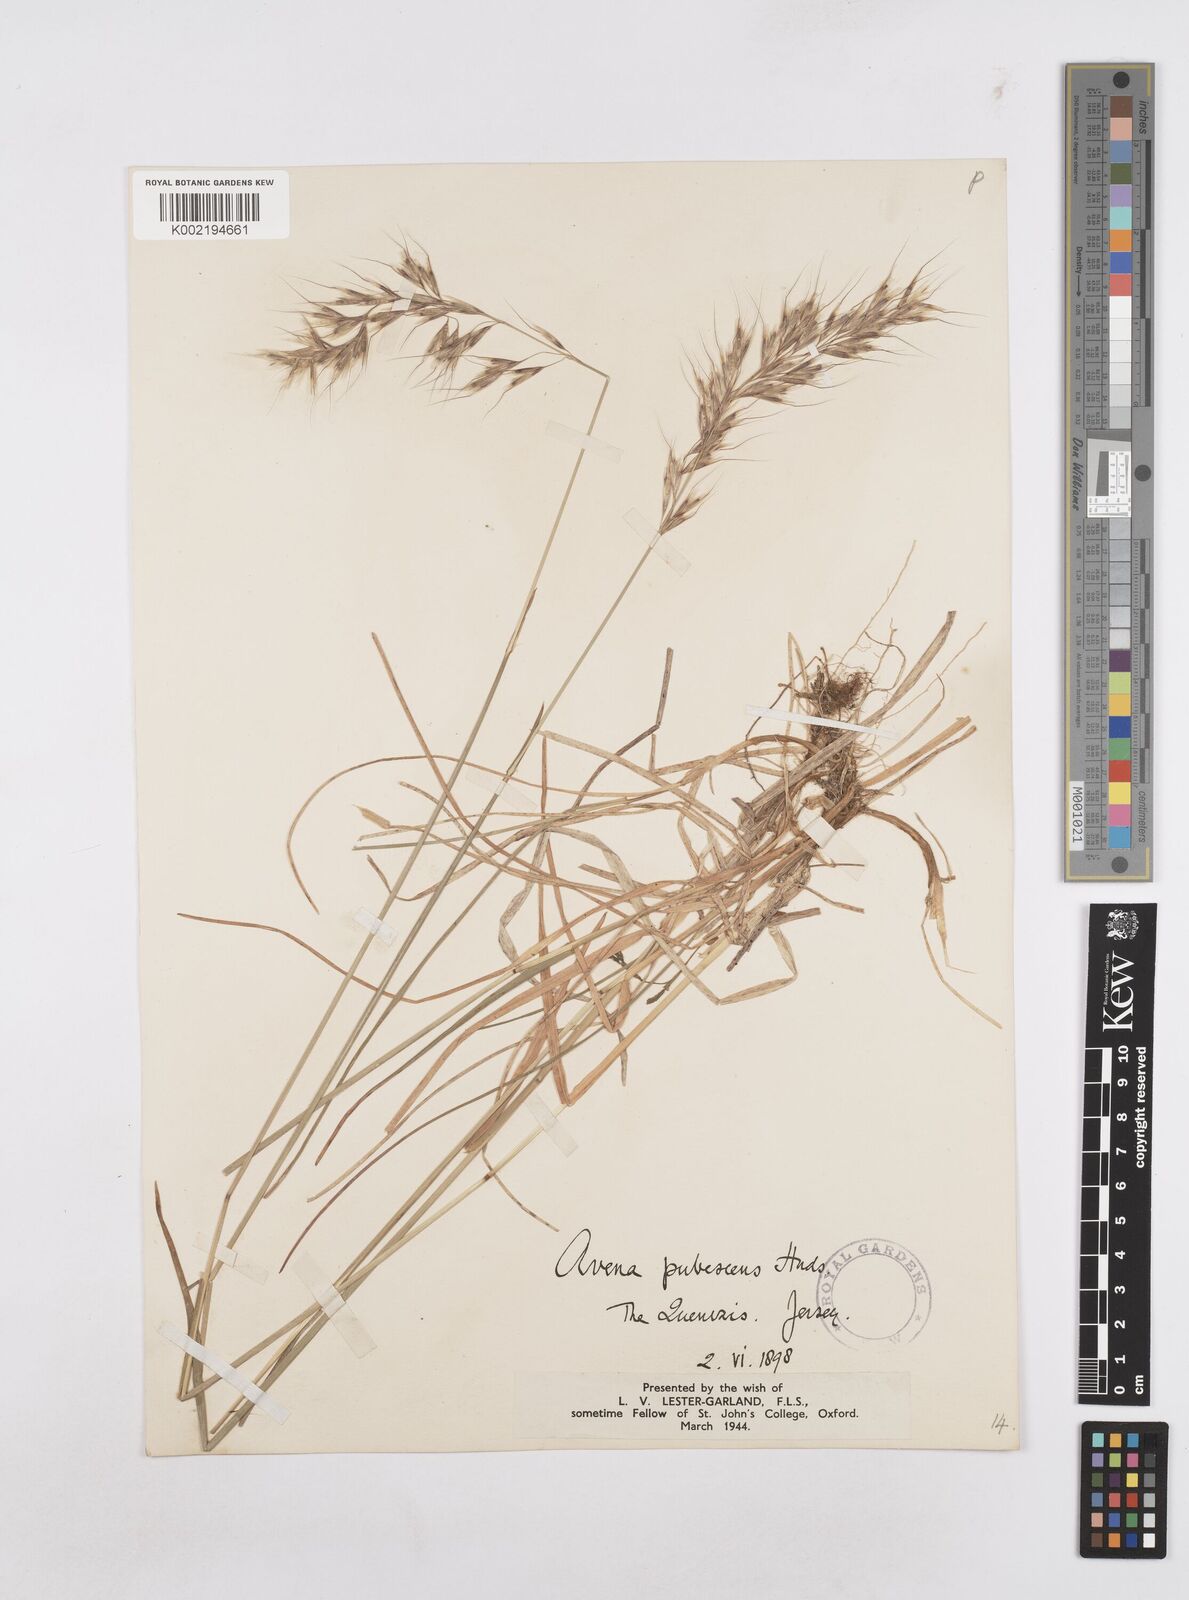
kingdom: Plantae
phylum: Tracheophyta
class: Liliopsida
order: Poales
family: Poaceae
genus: Avenula
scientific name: Avenula pubescens
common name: Downy alpine oatgrass
